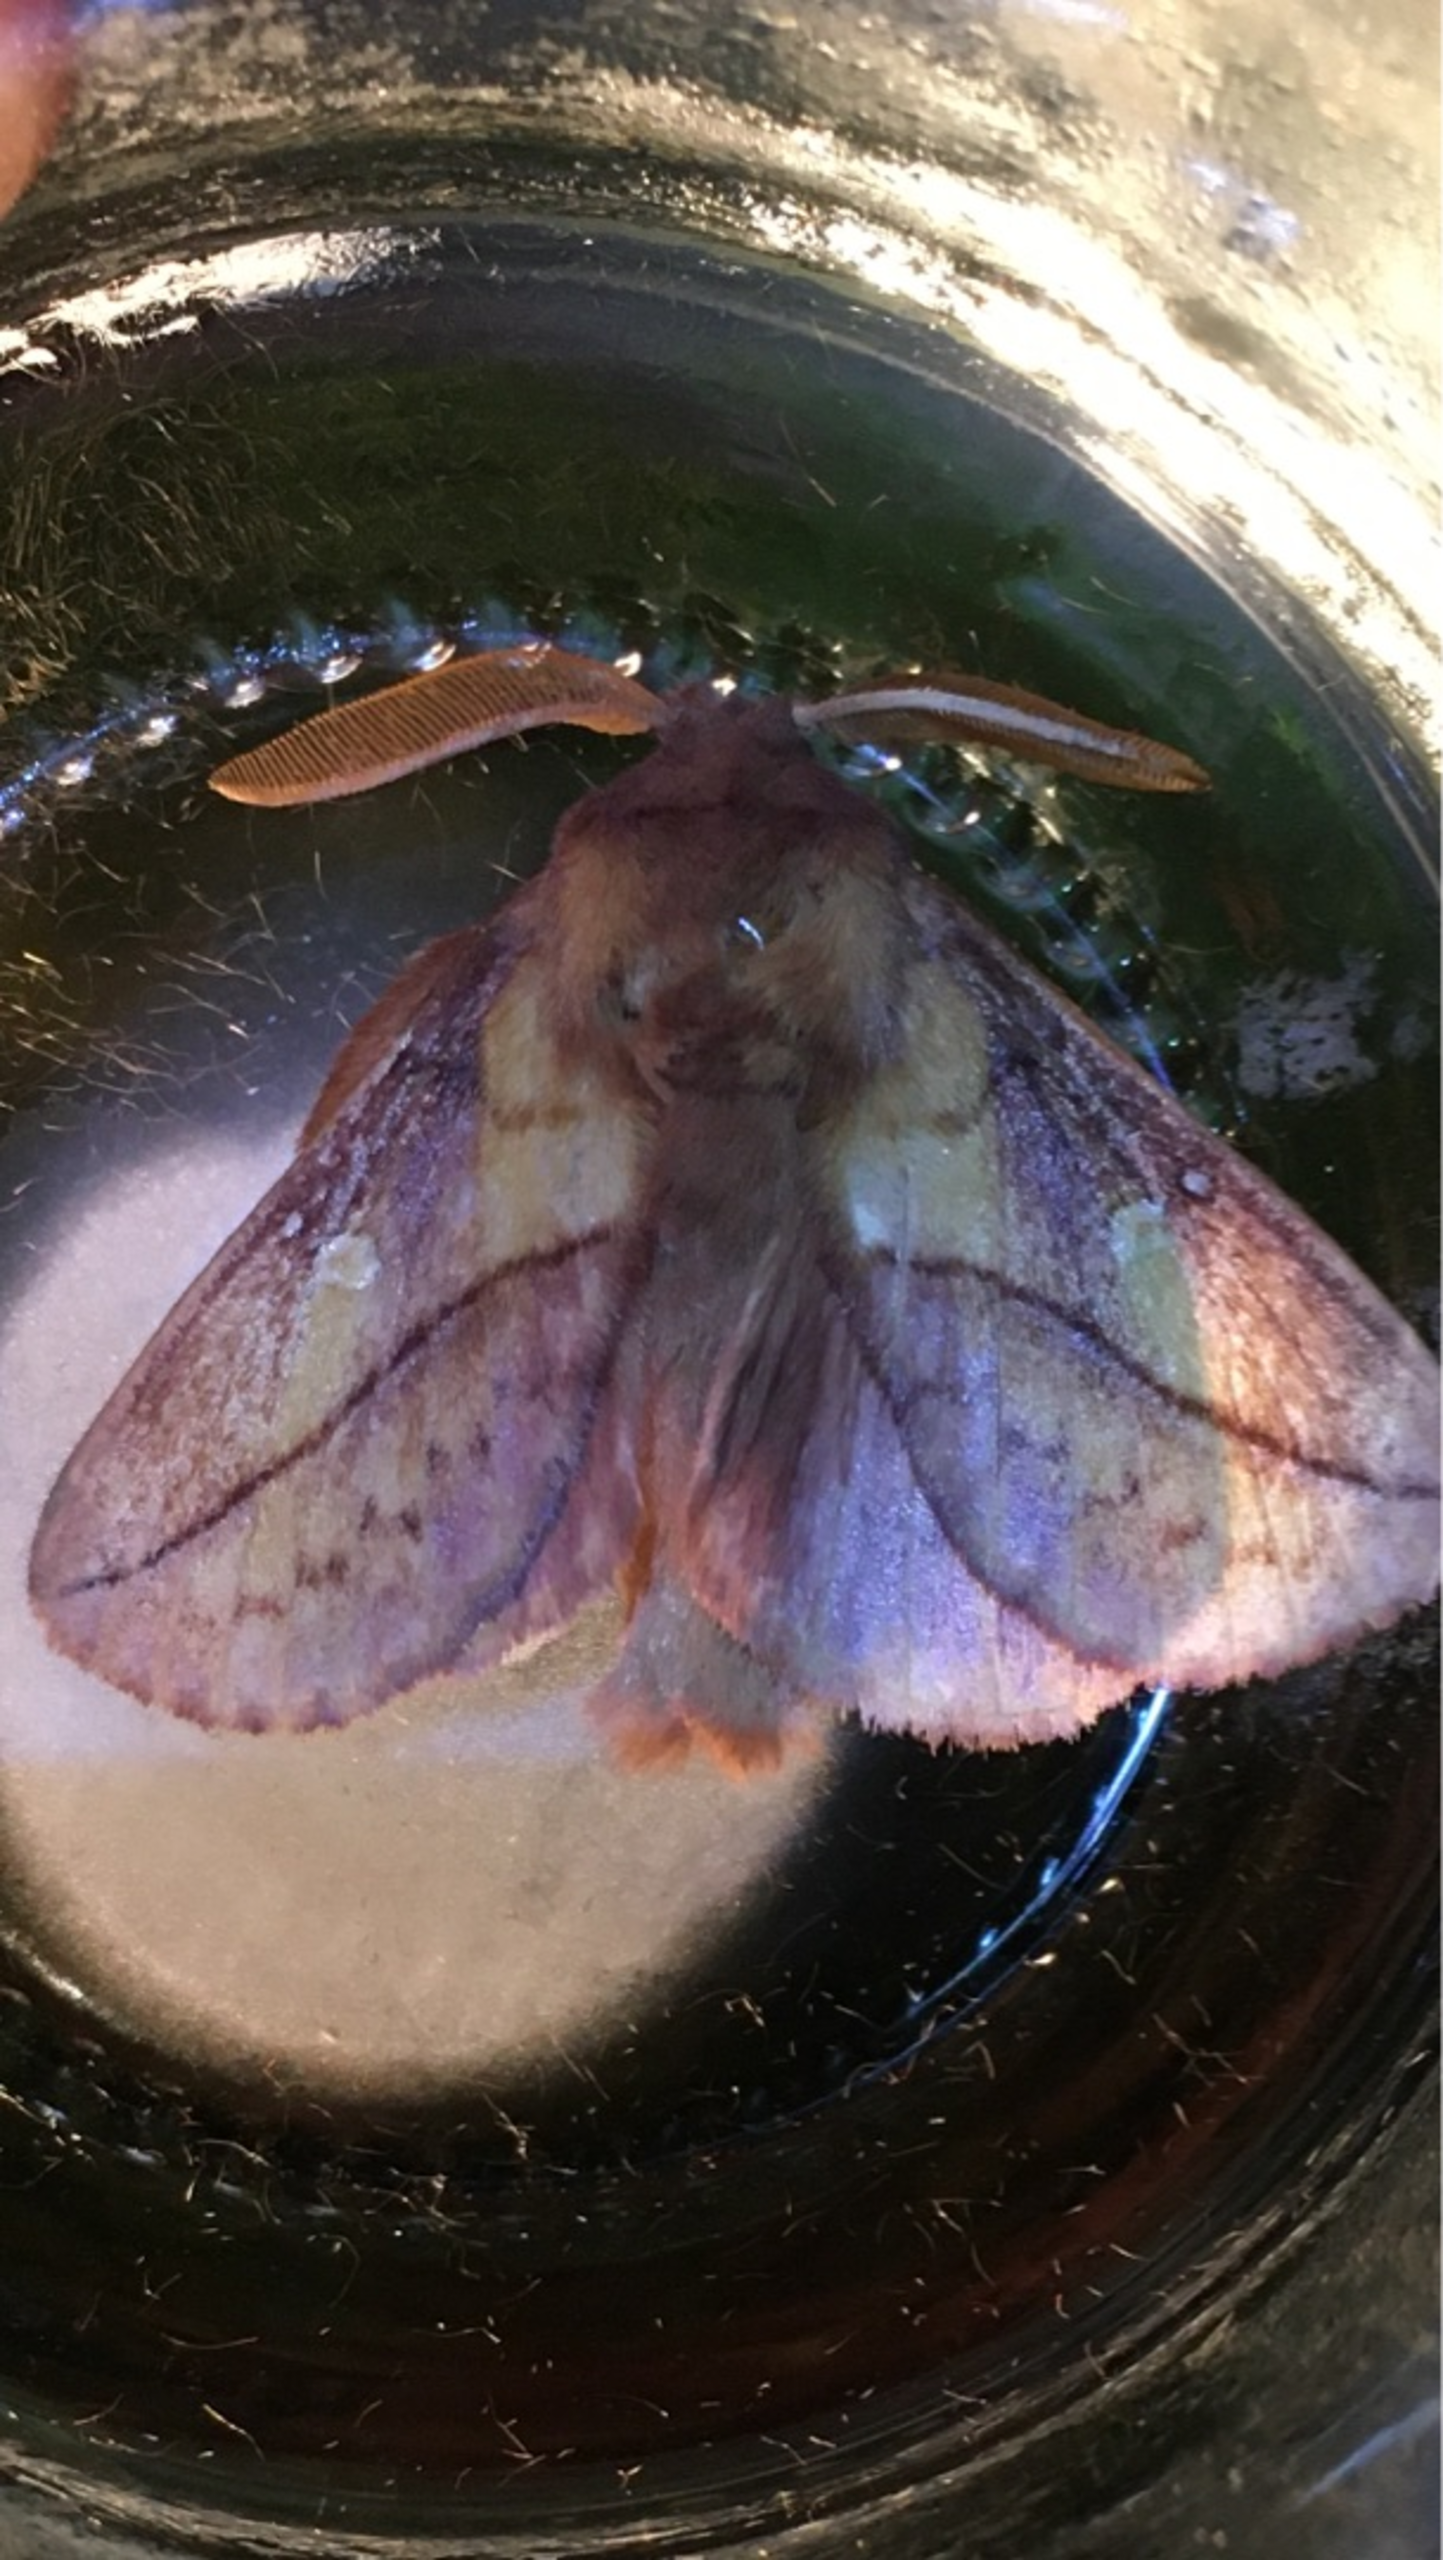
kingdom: Animalia
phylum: Arthropoda
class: Insecta
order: Lepidoptera
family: Lasiocampidae
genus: Euthrix
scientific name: Euthrix potatoria
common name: Græsspinder
